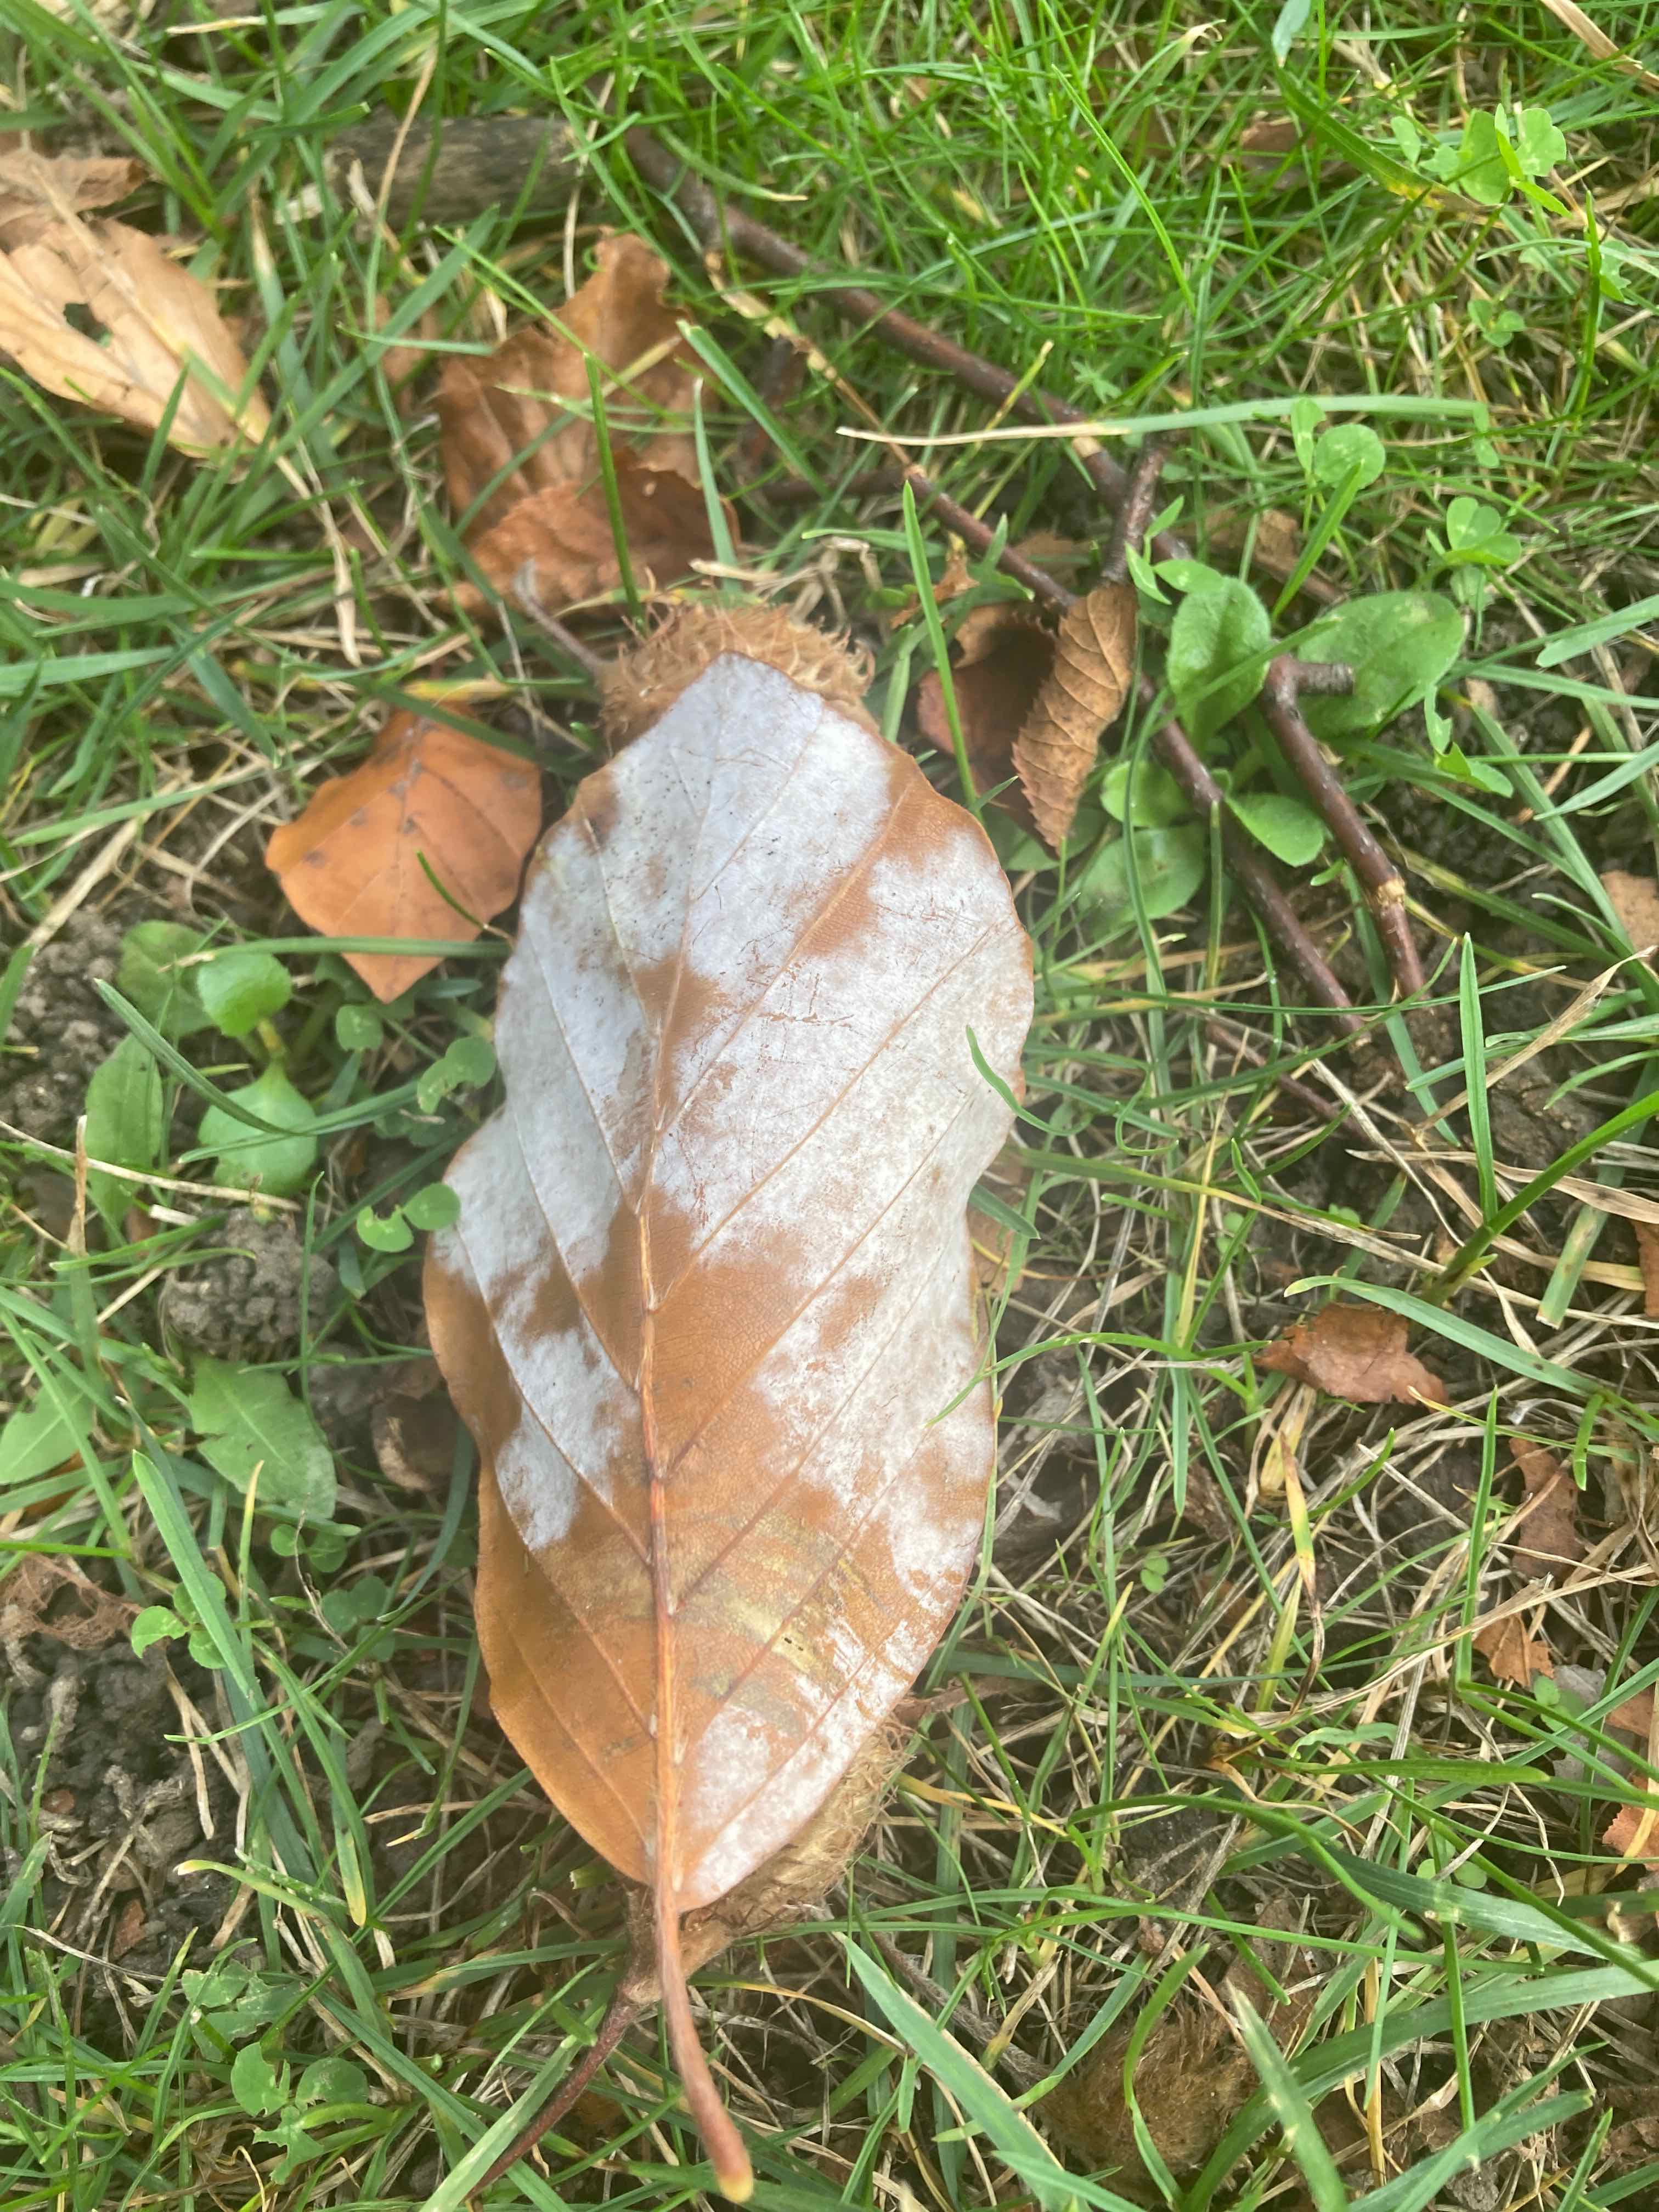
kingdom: Fungi
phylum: Ascomycota
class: Leotiomycetes
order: Helotiales
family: Erysiphaceae
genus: Phyllactinia
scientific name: Phyllactinia orbicularis
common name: bøge-meldug
